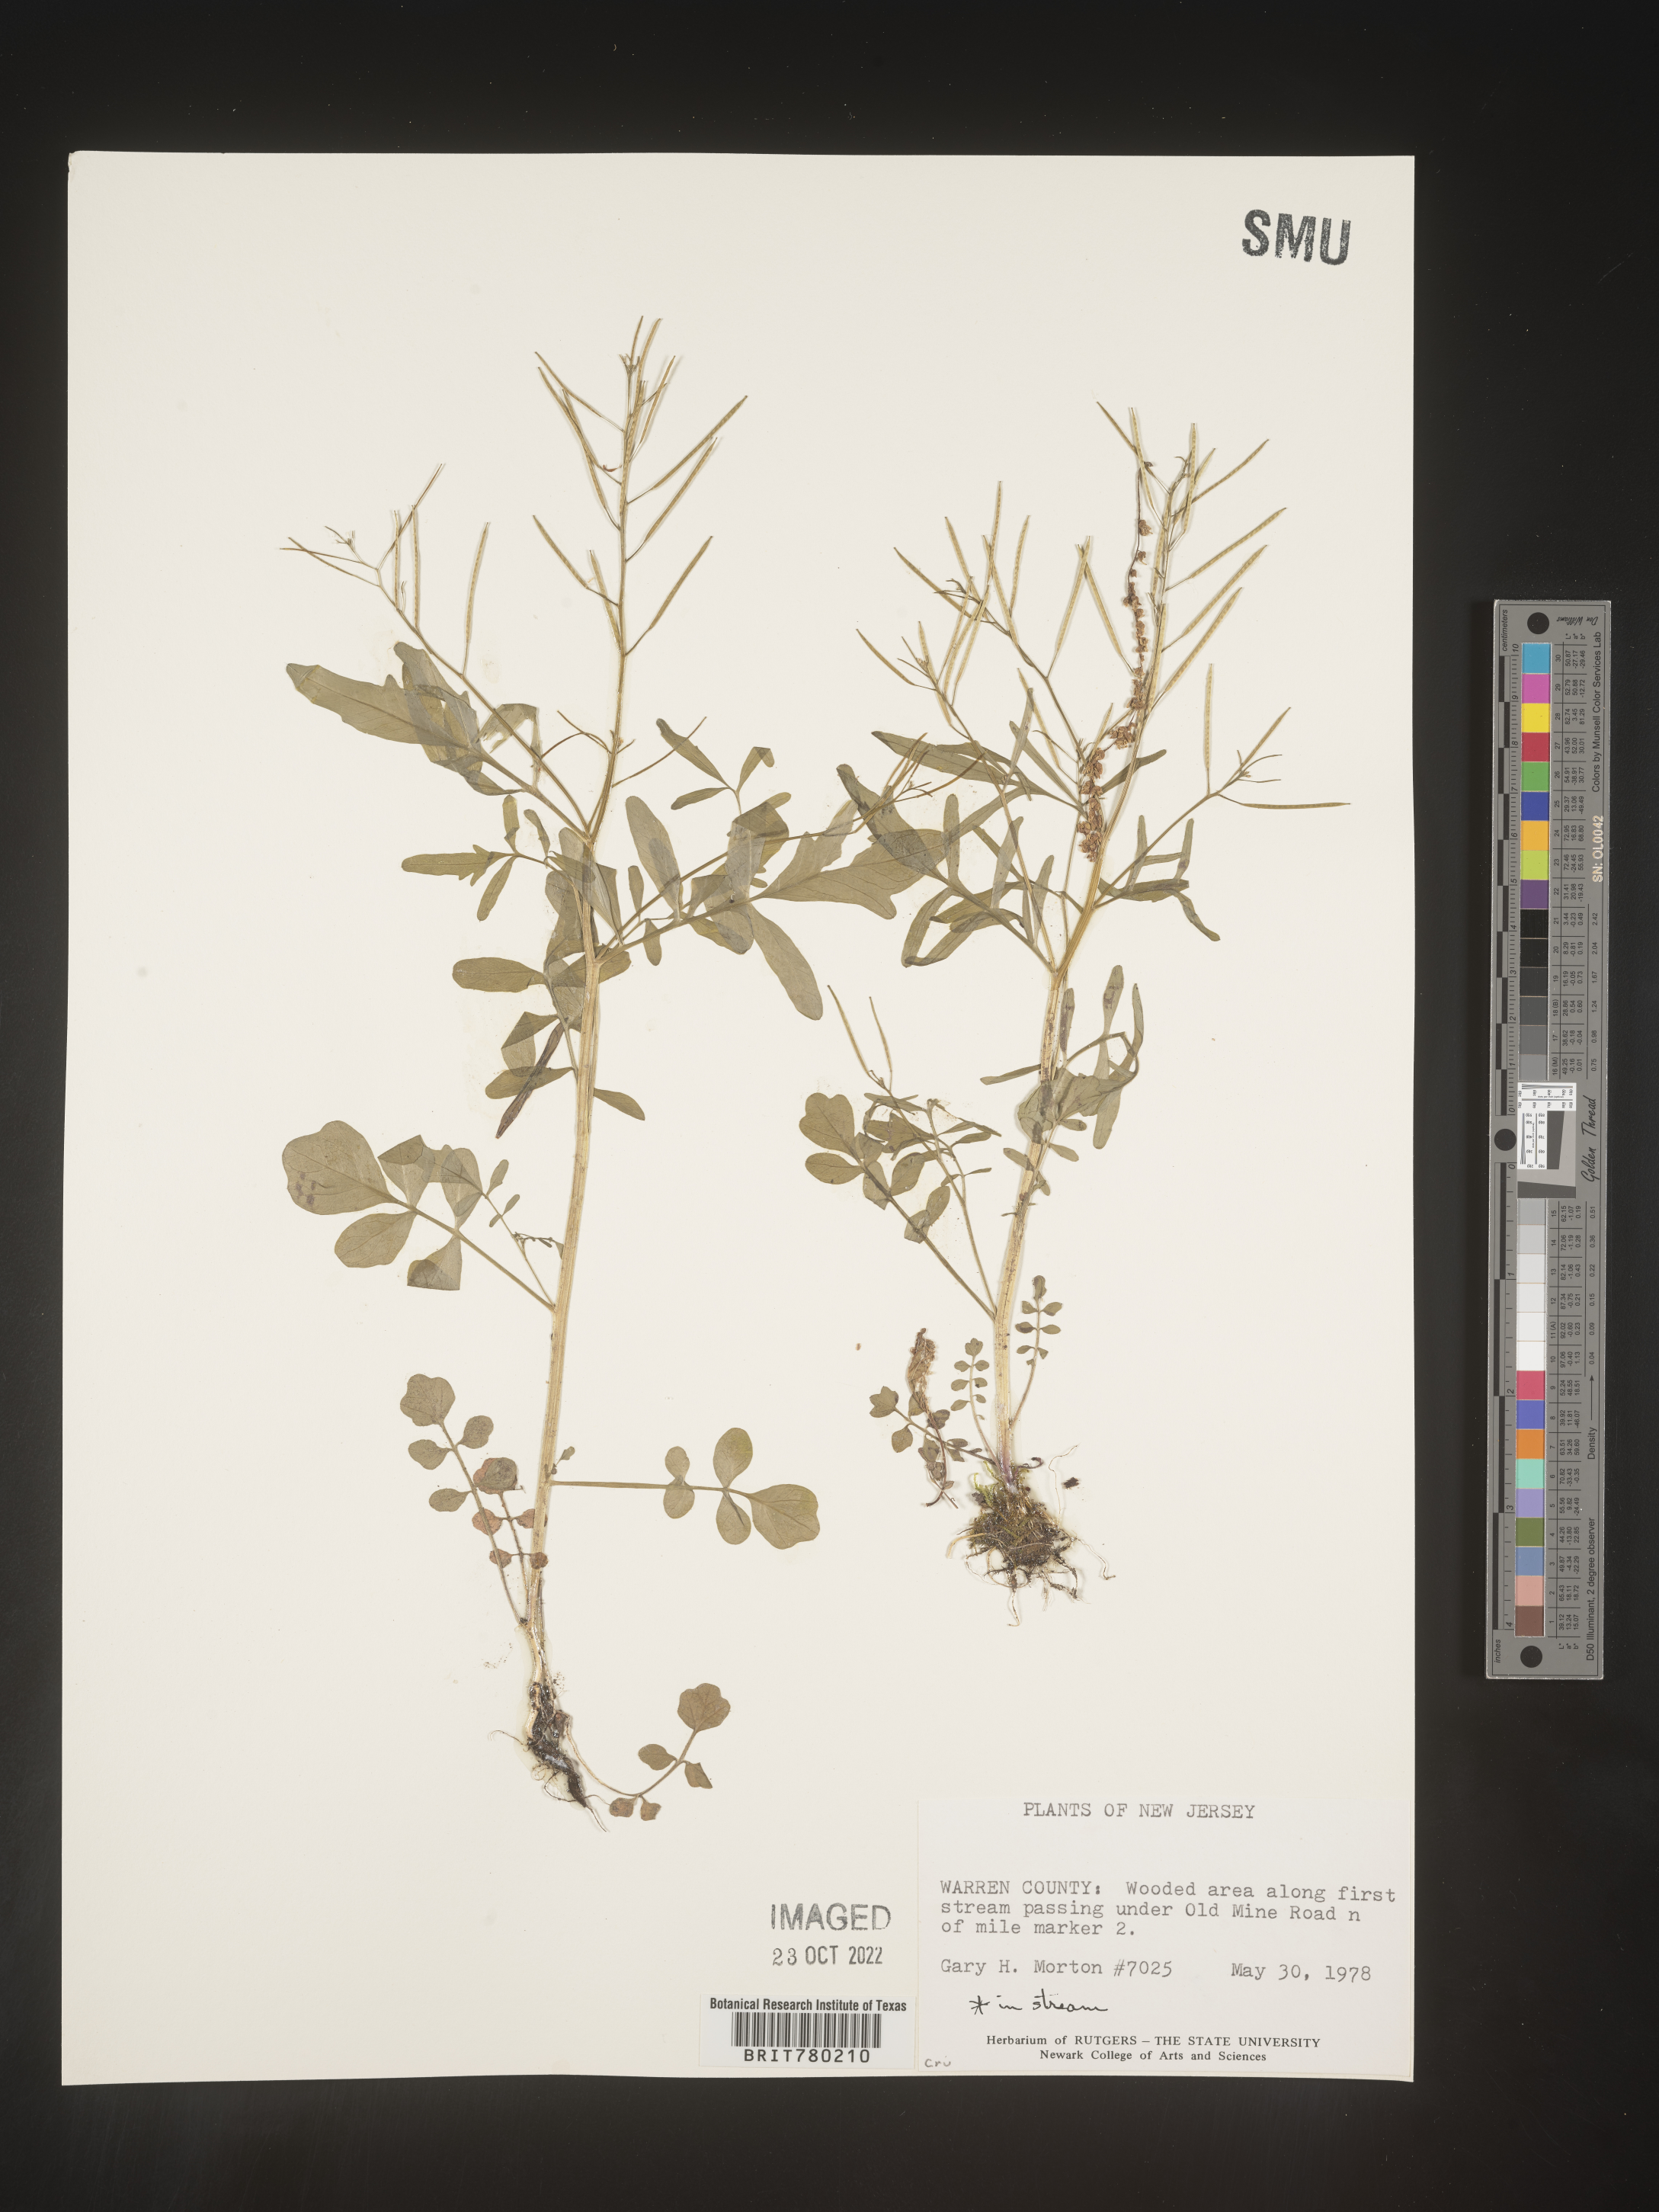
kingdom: Plantae
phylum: Tracheophyta
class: Magnoliopsida
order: Brassicales
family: Brassicaceae
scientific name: Brassicaceae
